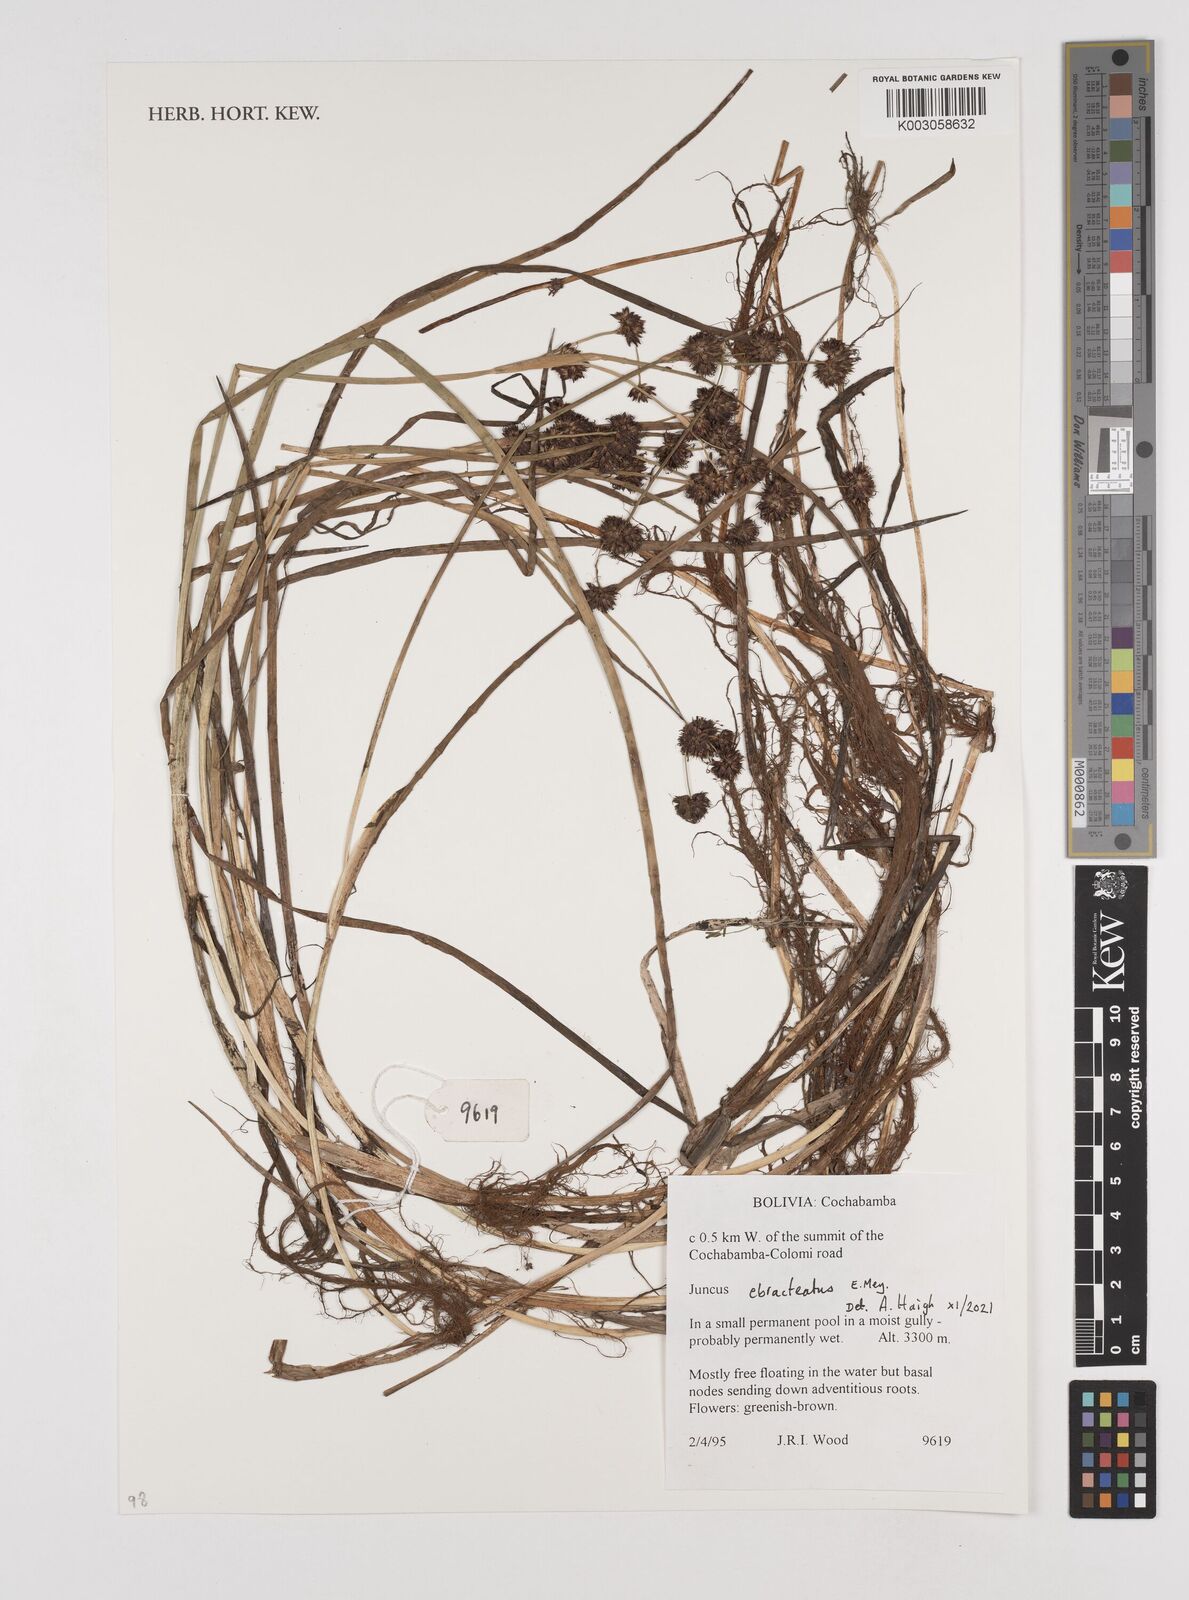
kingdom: Plantae
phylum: Tracheophyta
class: Liliopsida
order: Poales
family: Juncaceae
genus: Juncus
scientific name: Juncus ebracteatus
